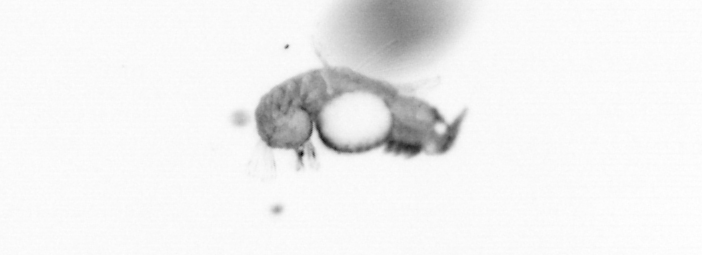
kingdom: Animalia
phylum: Annelida
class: Polychaeta
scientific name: Polychaeta
